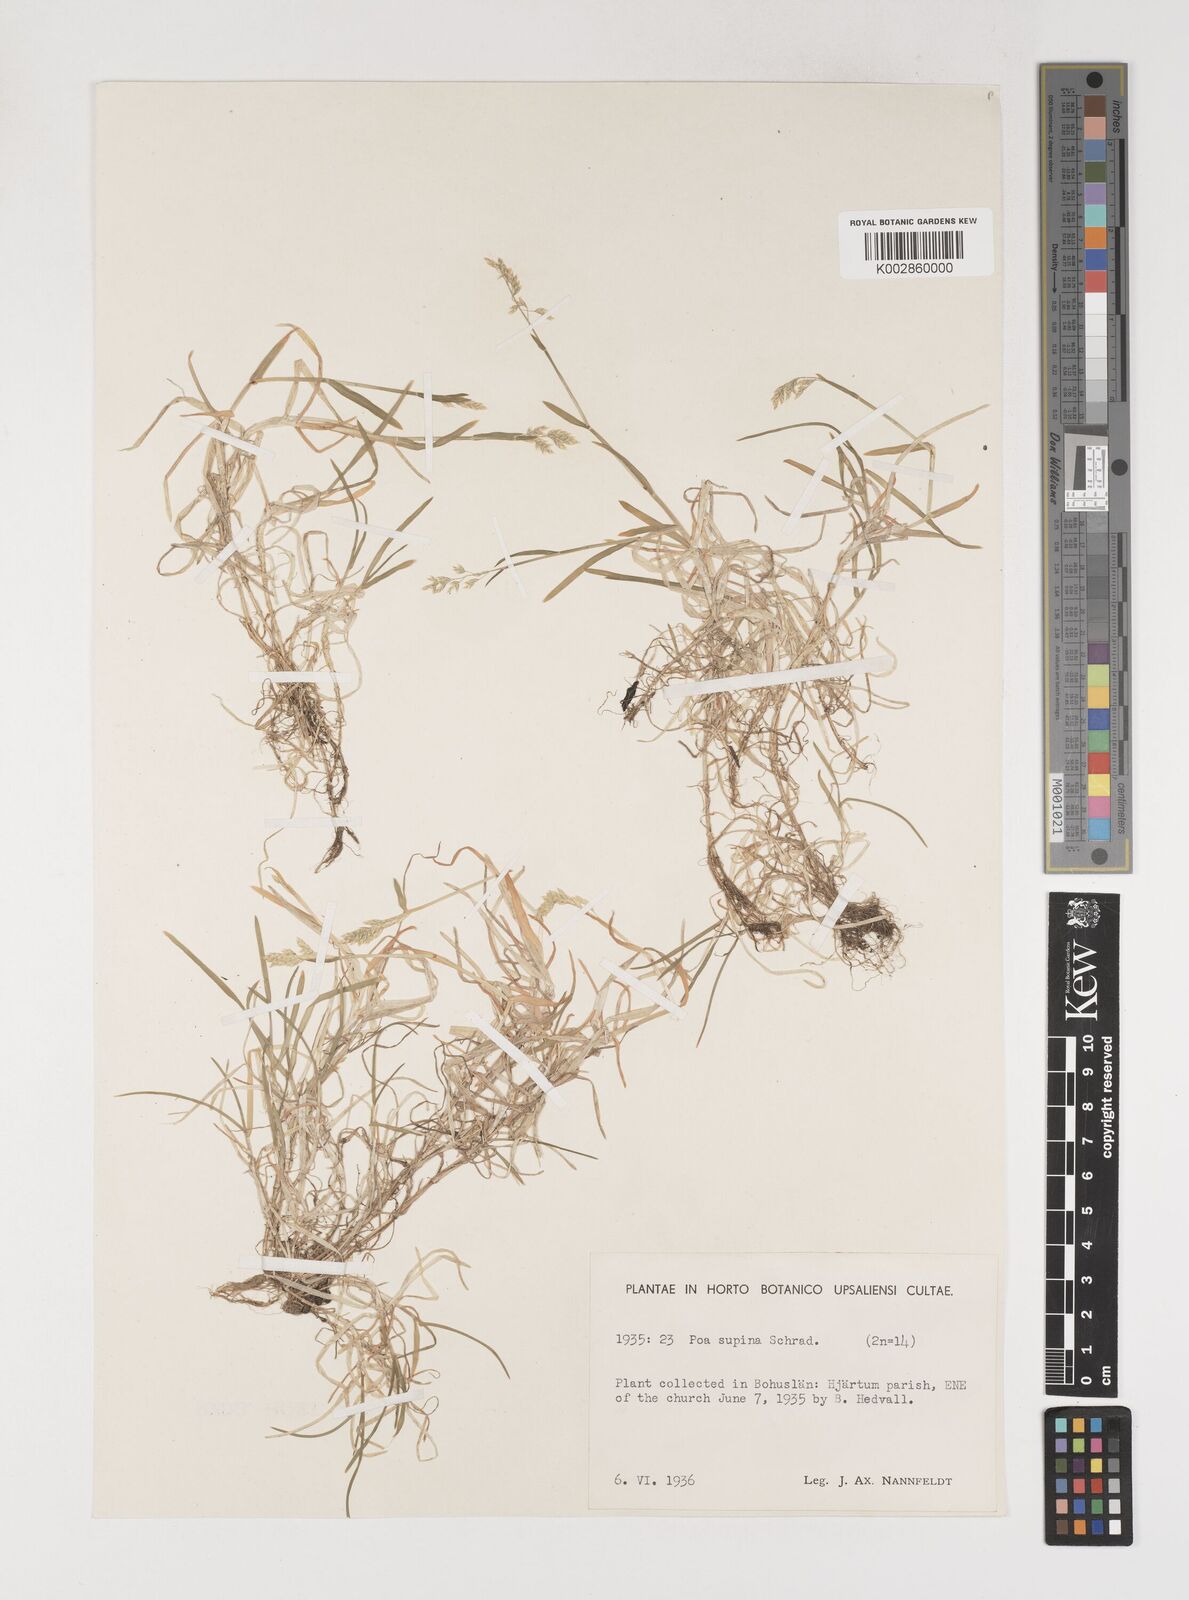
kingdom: Plantae
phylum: Tracheophyta
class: Liliopsida
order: Poales
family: Poaceae
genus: Poa
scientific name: Poa supina
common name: Supina bluegrass
